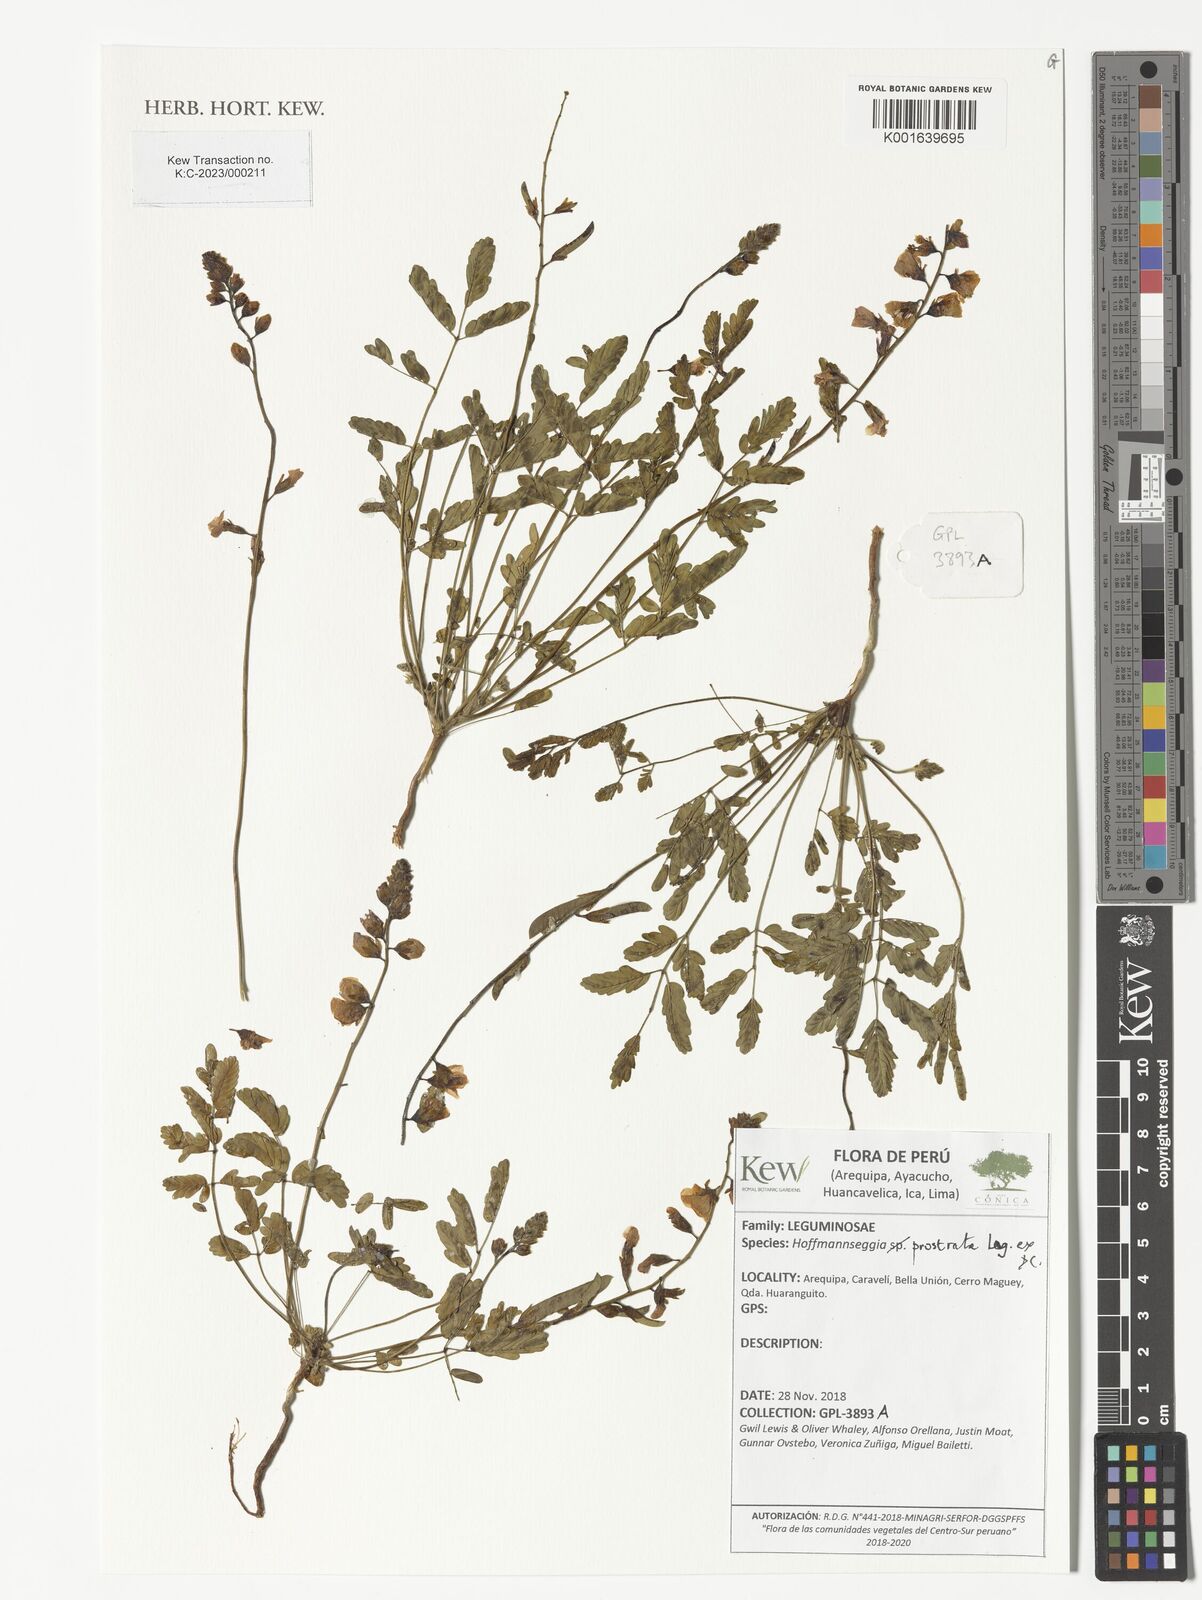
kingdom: Plantae
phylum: Tracheophyta
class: Magnoliopsida
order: Fabales
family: Fabaceae
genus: Hoffmannseggia
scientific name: Hoffmannseggia prostrata
